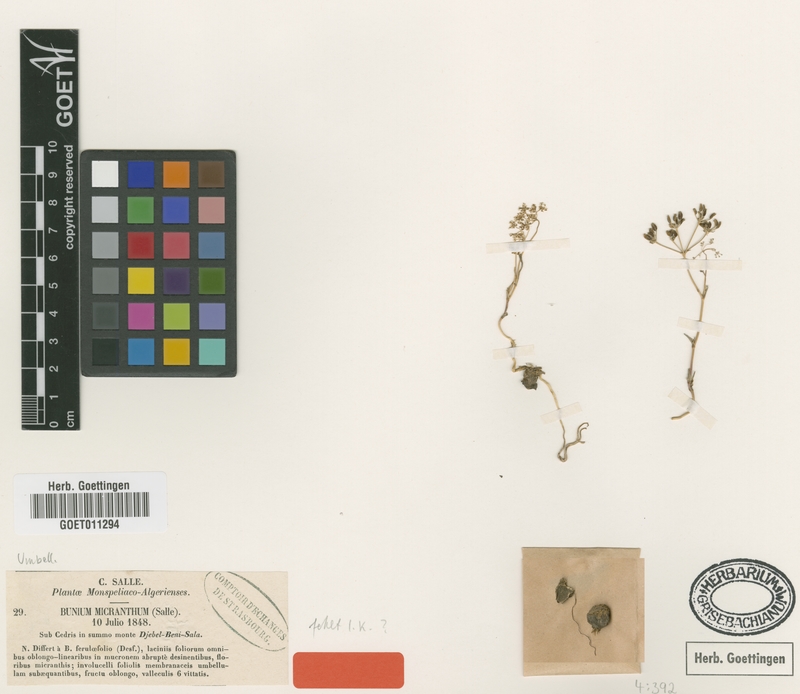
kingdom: Plantae
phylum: Tracheophyta
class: Magnoliopsida
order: Apiales
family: Apiaceae
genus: Bunium
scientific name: Bunium
